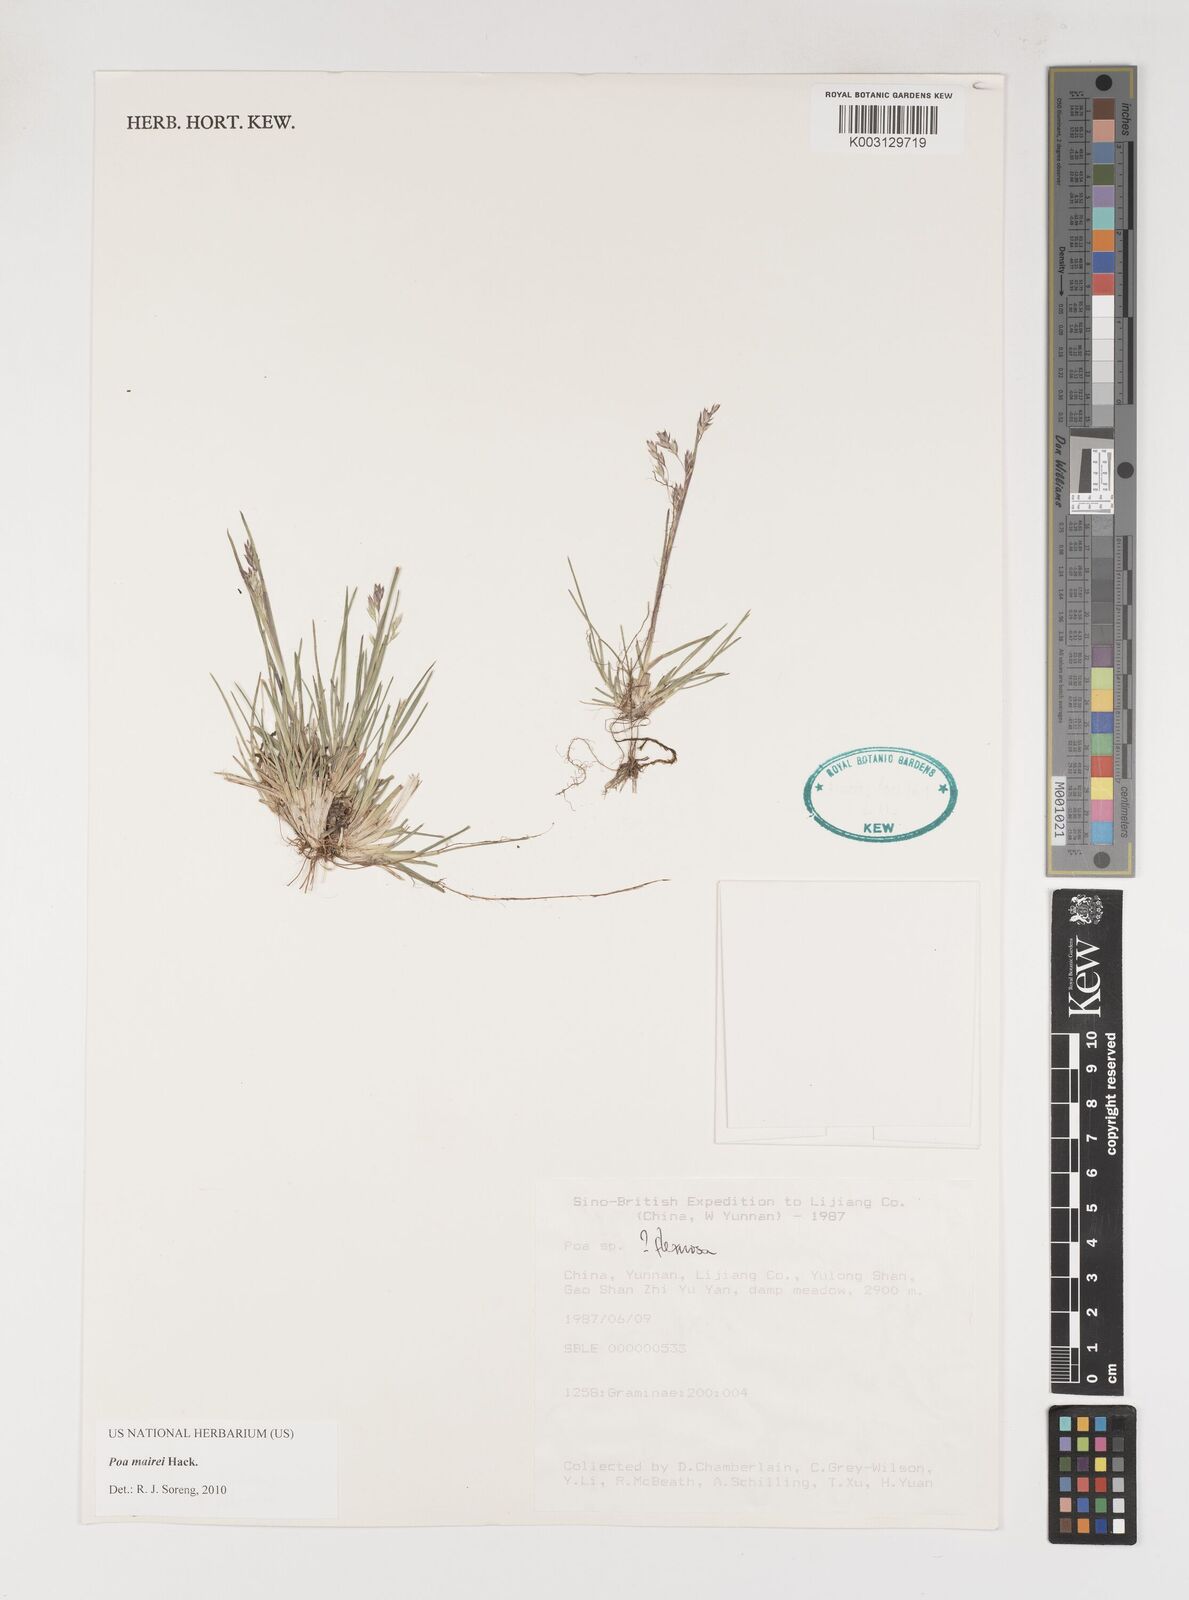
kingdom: Plantae
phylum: Tracheophyta
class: Liliopsida
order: Poales
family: Poaceae
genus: Poa
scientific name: Poa mairei
